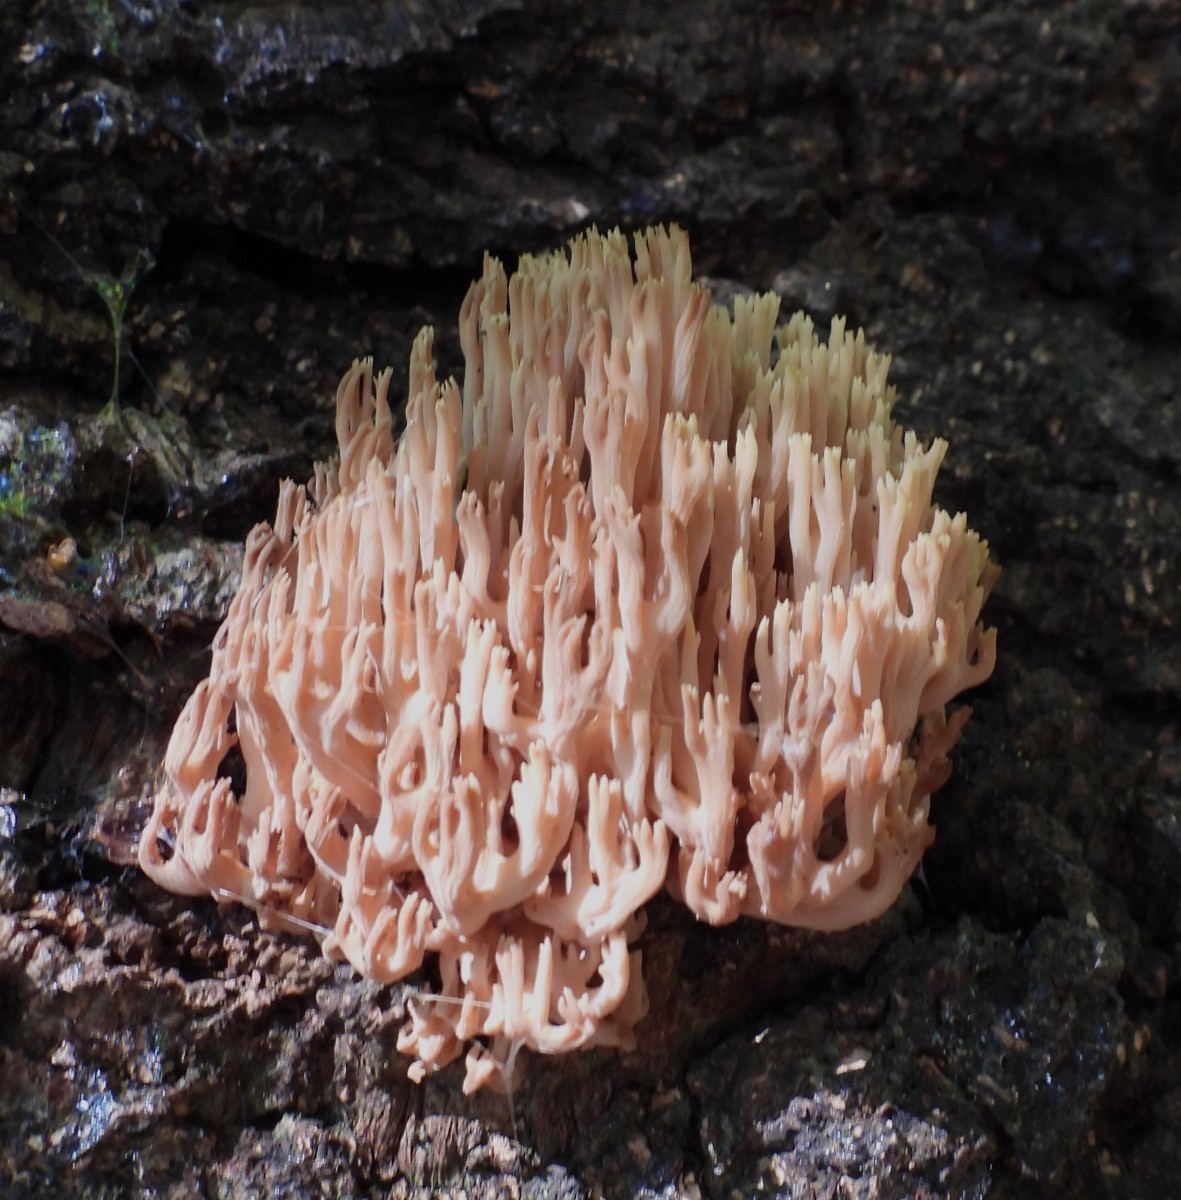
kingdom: Fungi
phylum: Basidiomycota
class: Agaricomycetes
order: Gomphales
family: Gomphaceae
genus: Ramaria
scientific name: Ramaria stricta
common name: rank koralsvamp
